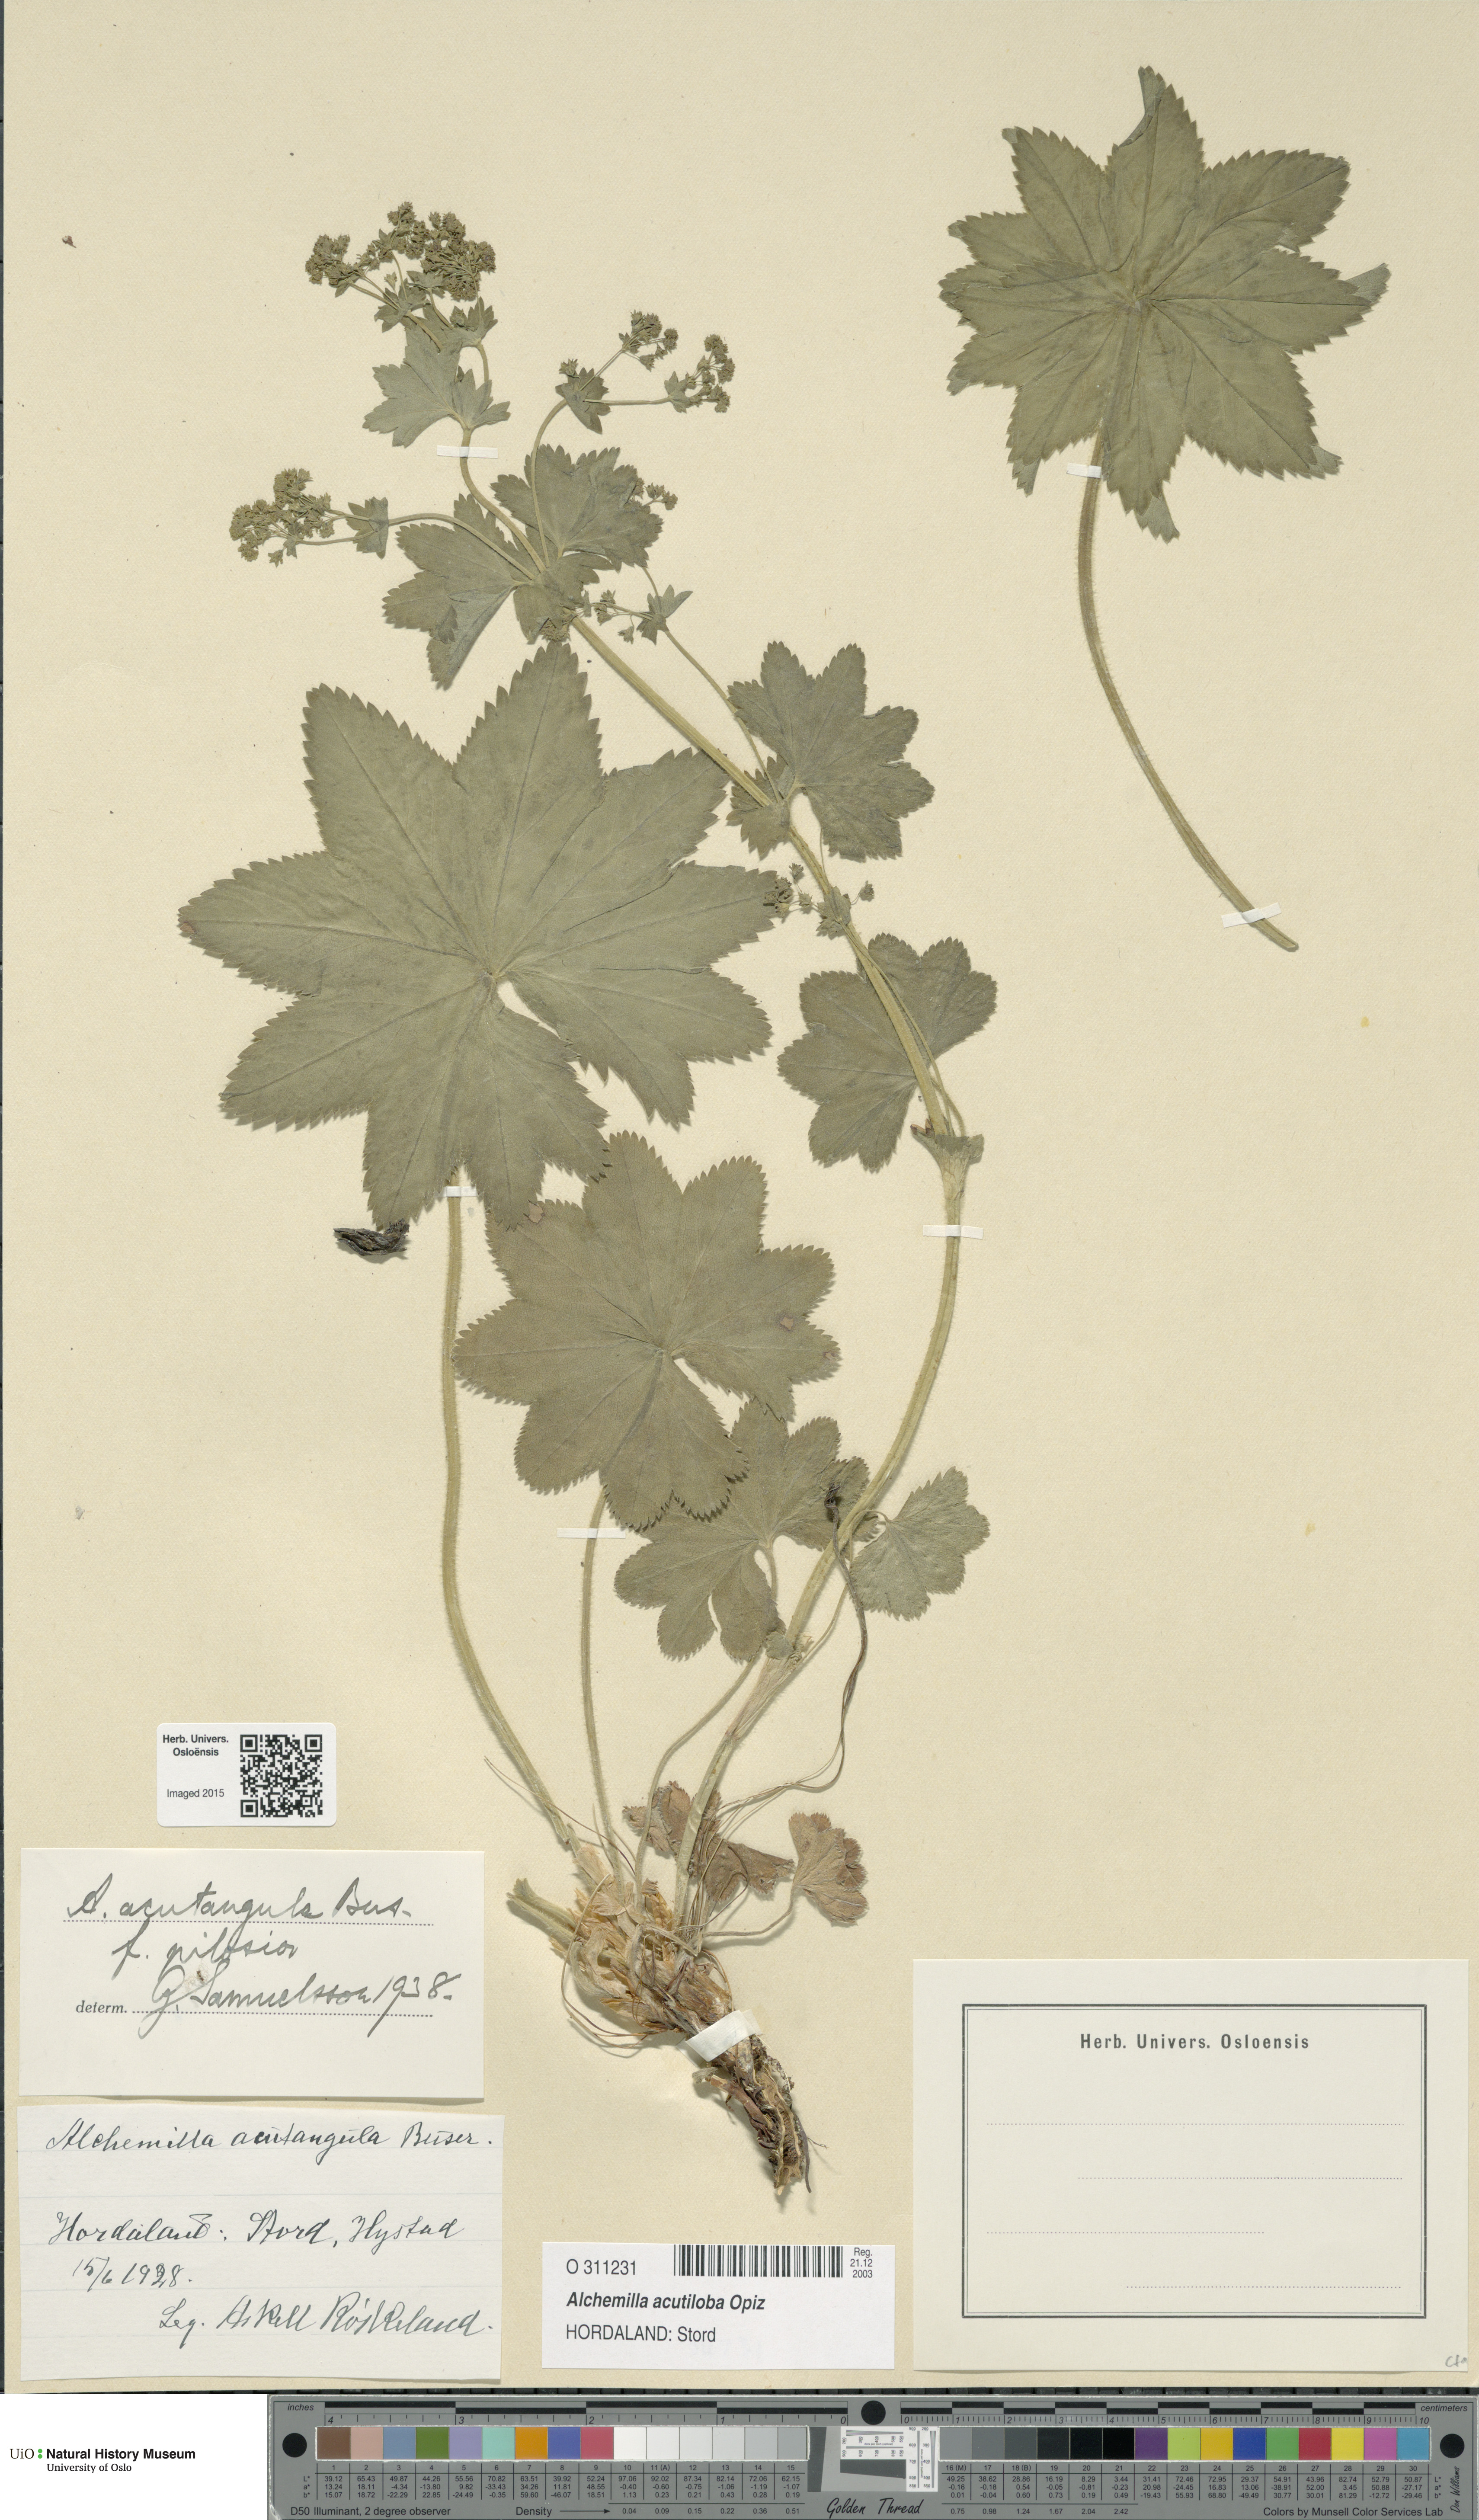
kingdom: Plantae
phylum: Tracheophyta
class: Magnoliopsida
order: Rosales
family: Rosaceae
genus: Alchemilla
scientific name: Alchemilla vulgaris
